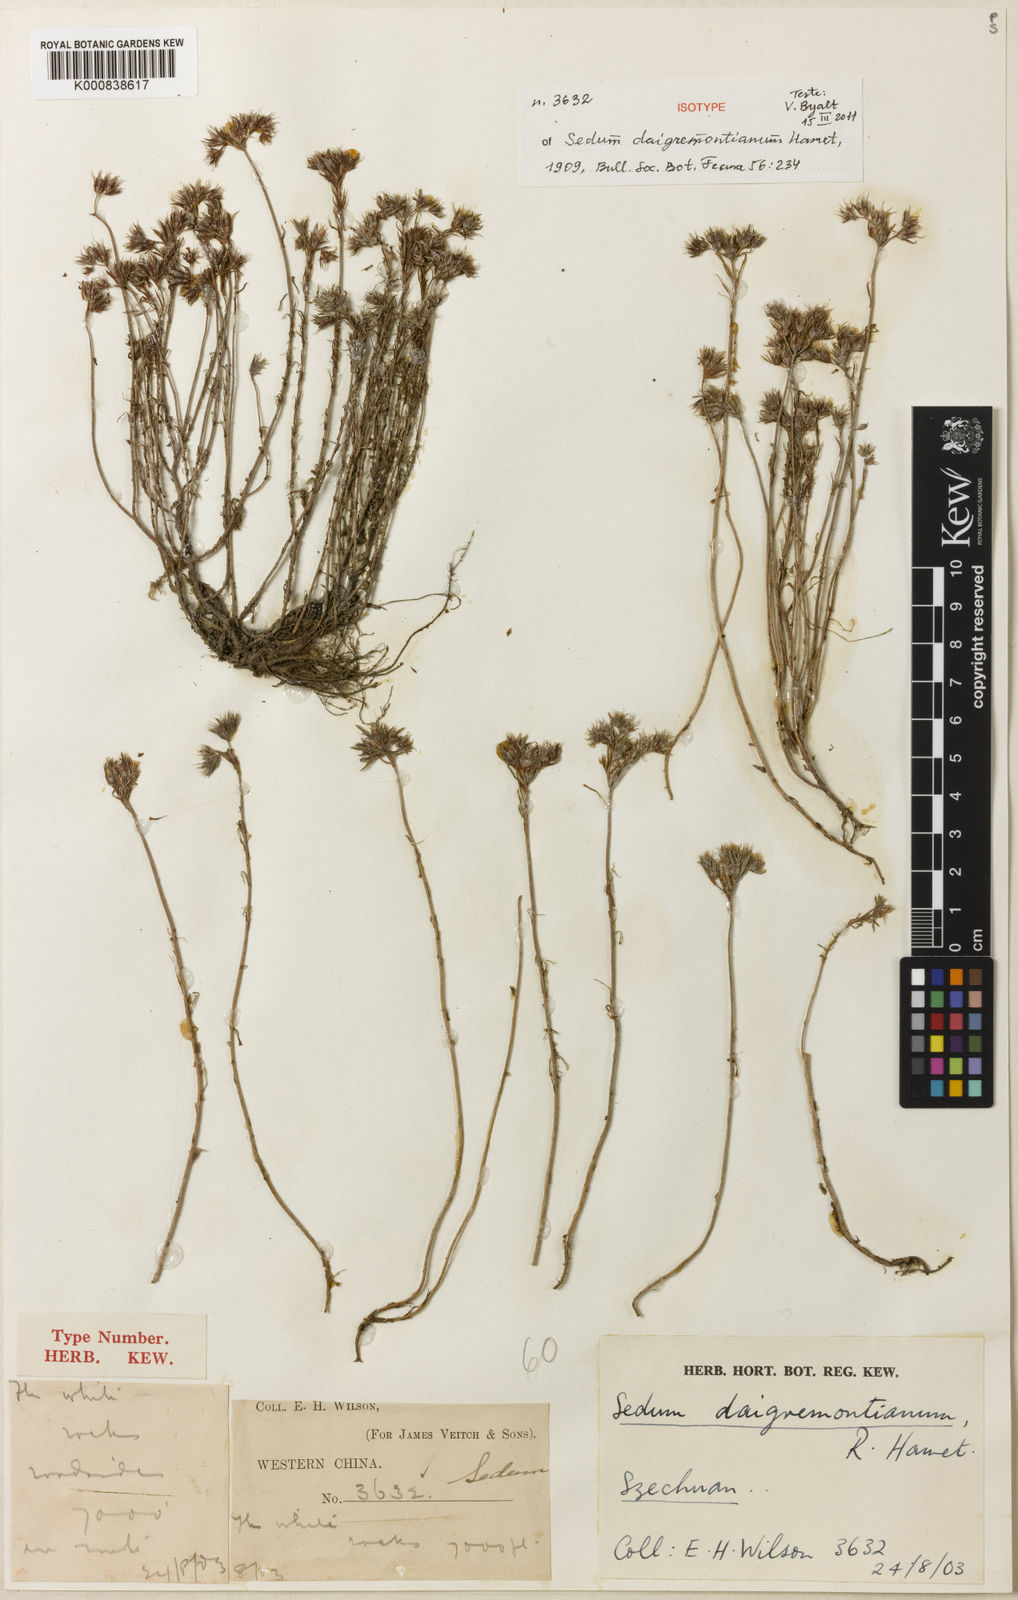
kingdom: Plantae
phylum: Tracheophyta
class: Magnoliopsida
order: Saxifragales
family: Crassulaceae
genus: Sedum
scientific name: Sedum daigremontianum
